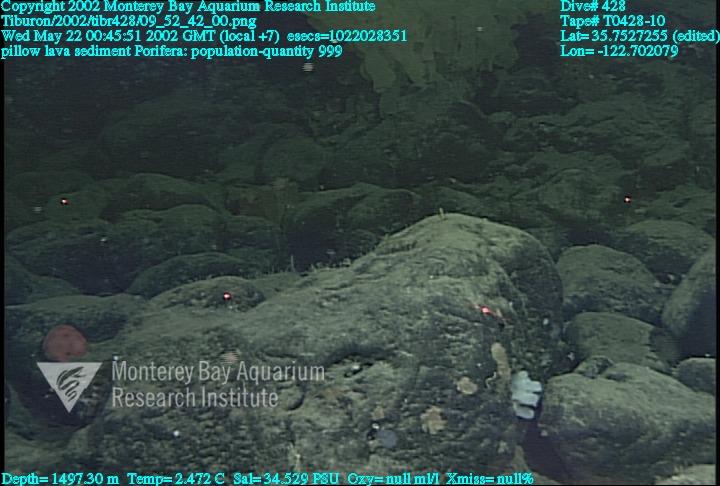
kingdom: Animalia
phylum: Porifera
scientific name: Porifera
